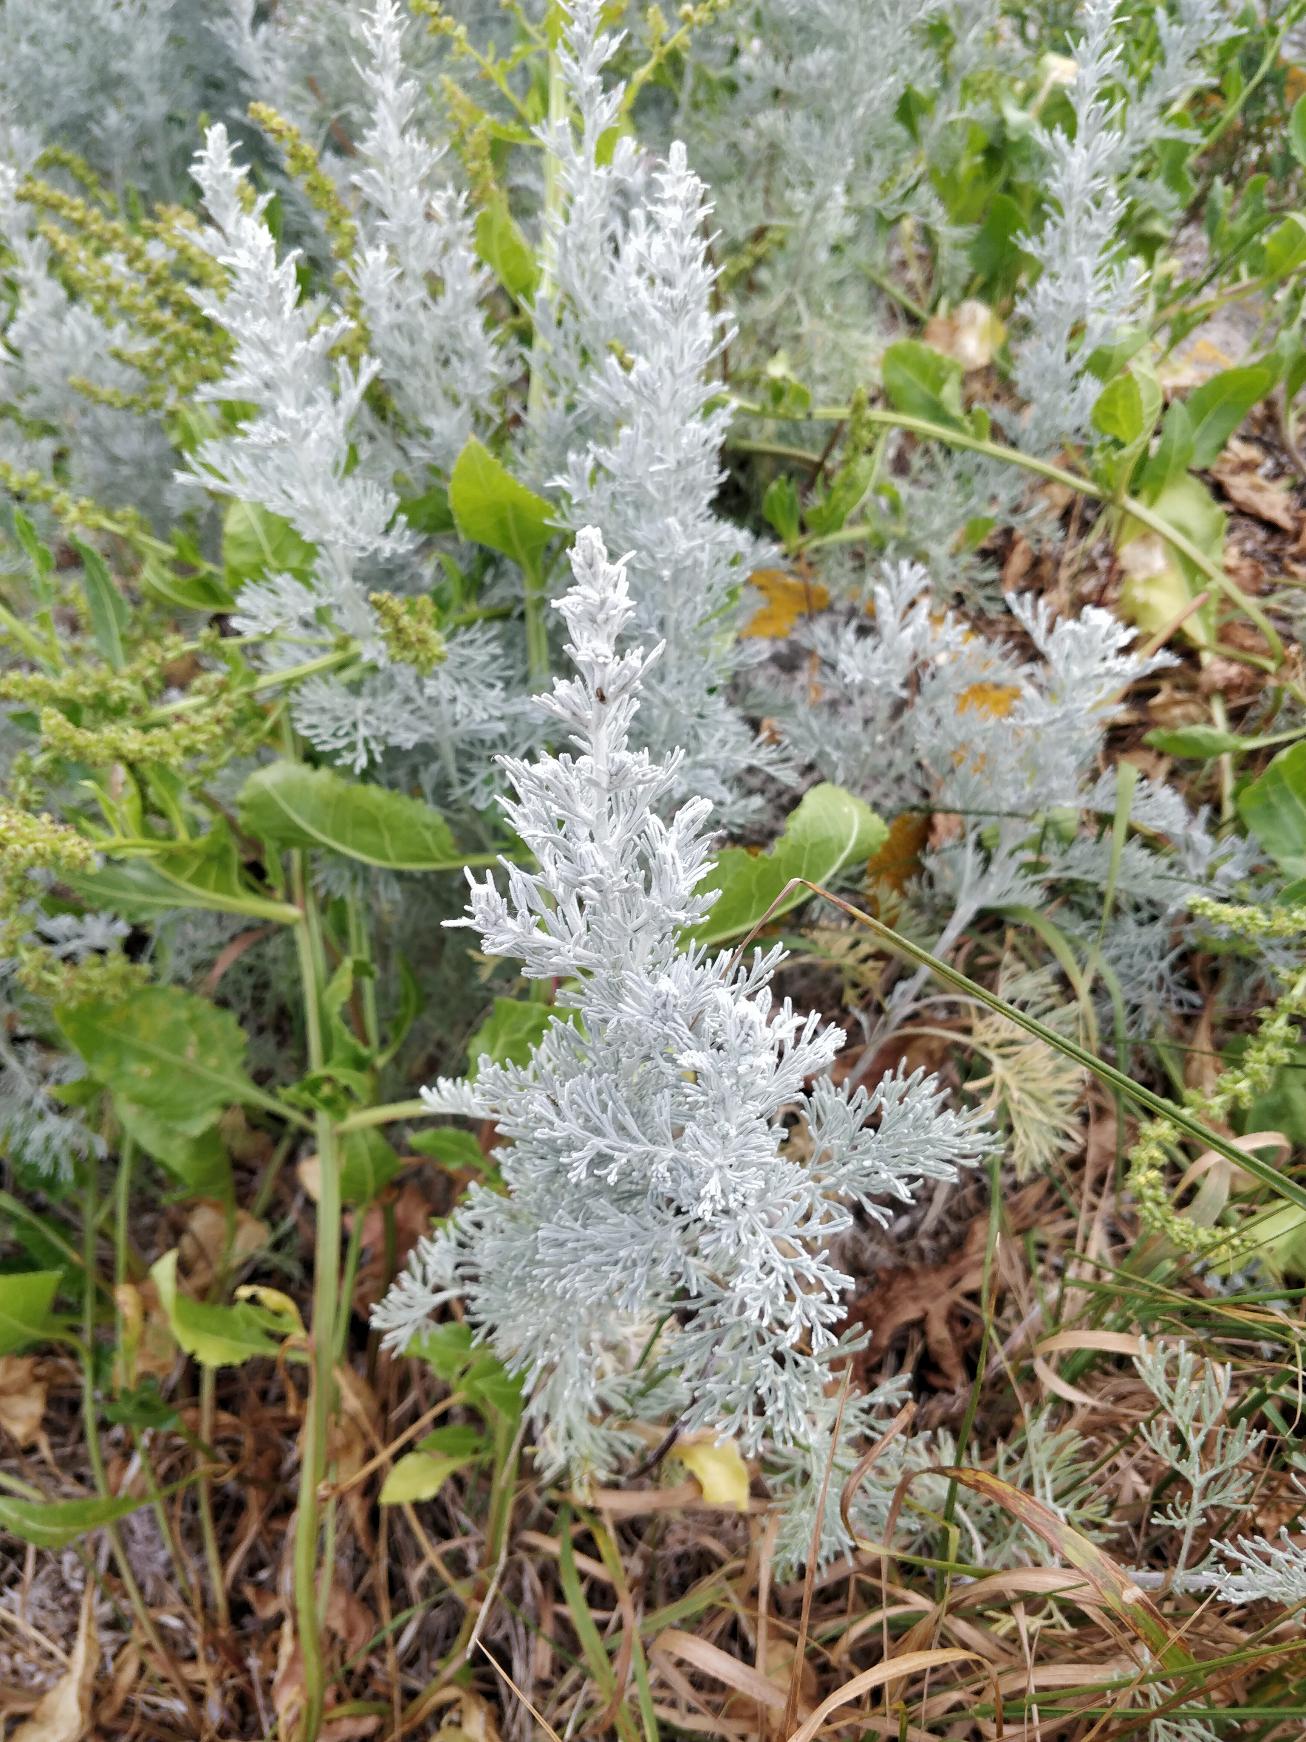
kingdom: Plantae
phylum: Tracheophyta
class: Magnoliopsida
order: Asterales
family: Asteraceae
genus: Artemisia
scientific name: Artemisia maritima
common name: Strandmalurt
